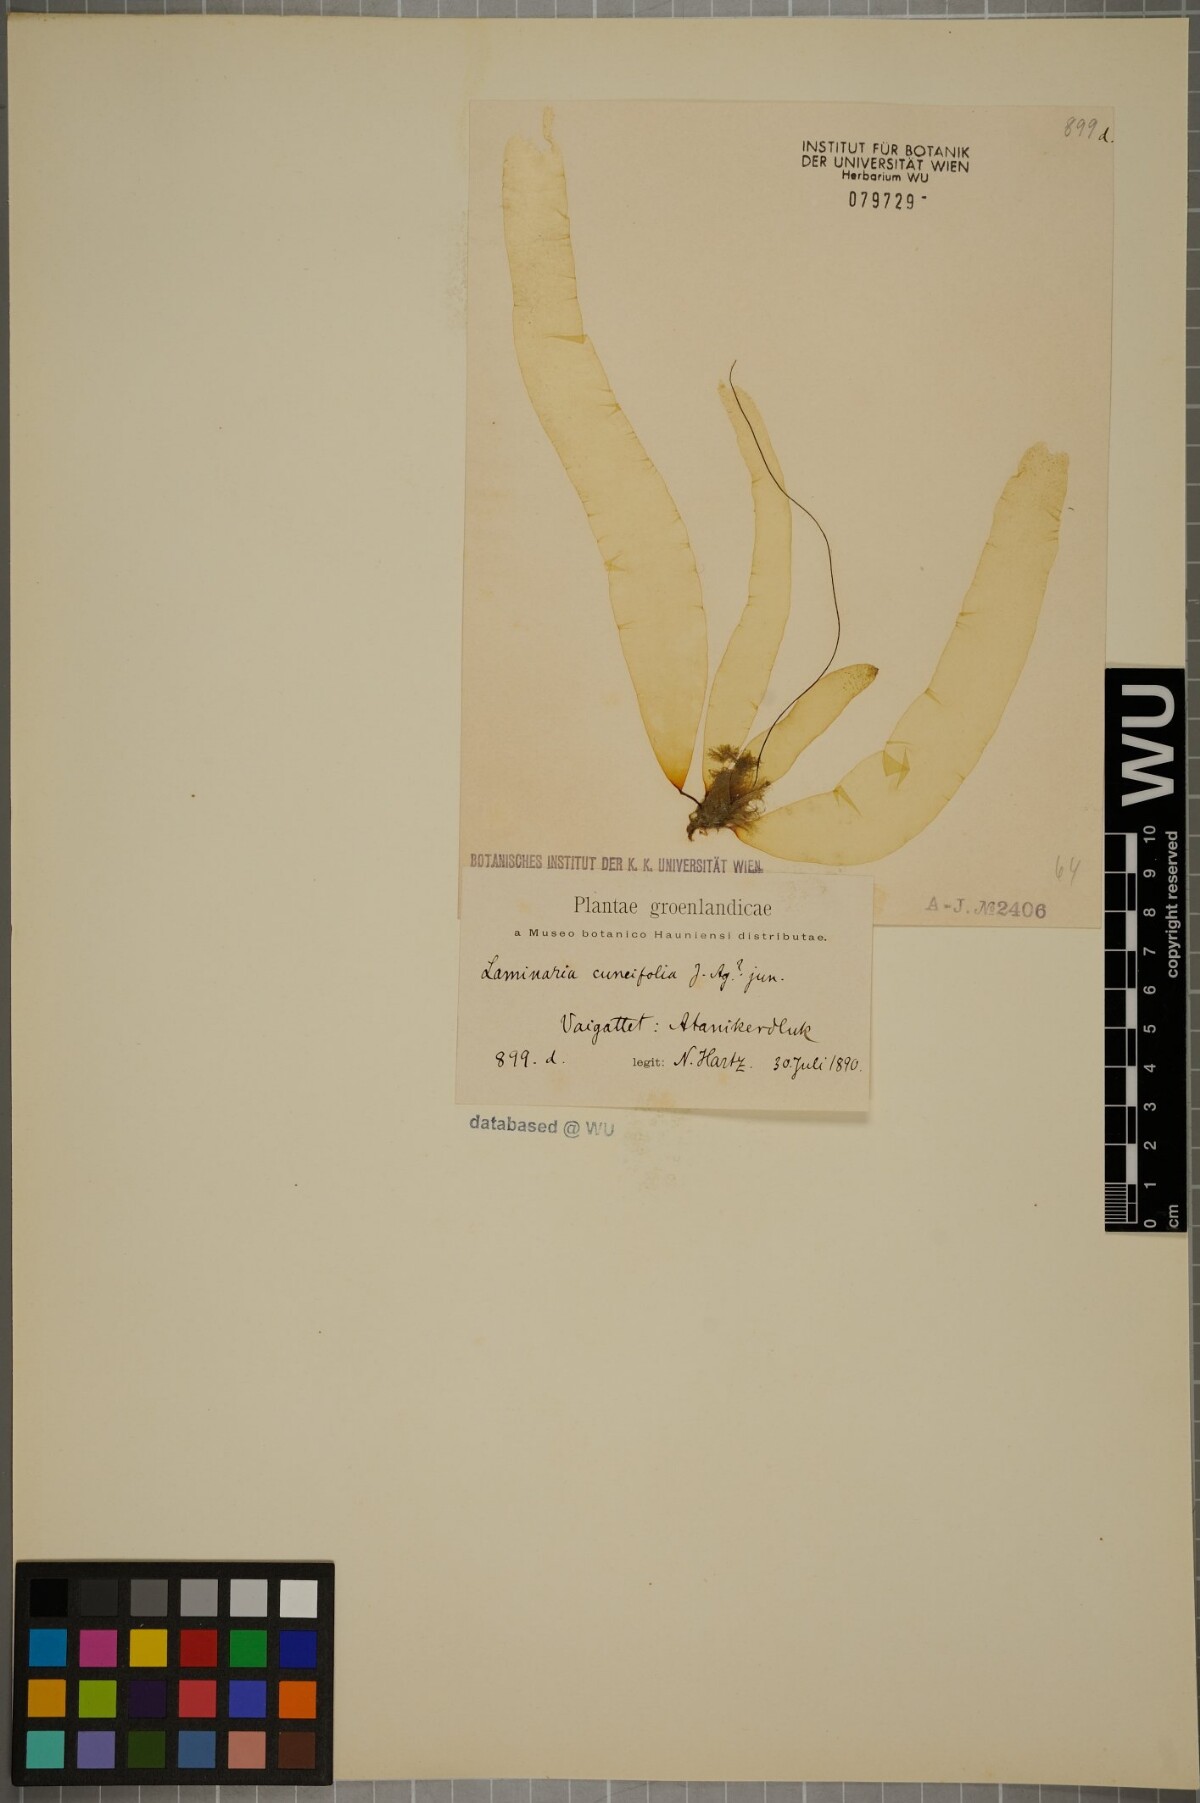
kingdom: Chromista
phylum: Ochrophyta
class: Phaeophyceae
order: Laminariales
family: Laminariaceae
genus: Saccharina
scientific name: Saccharina groenlandica
